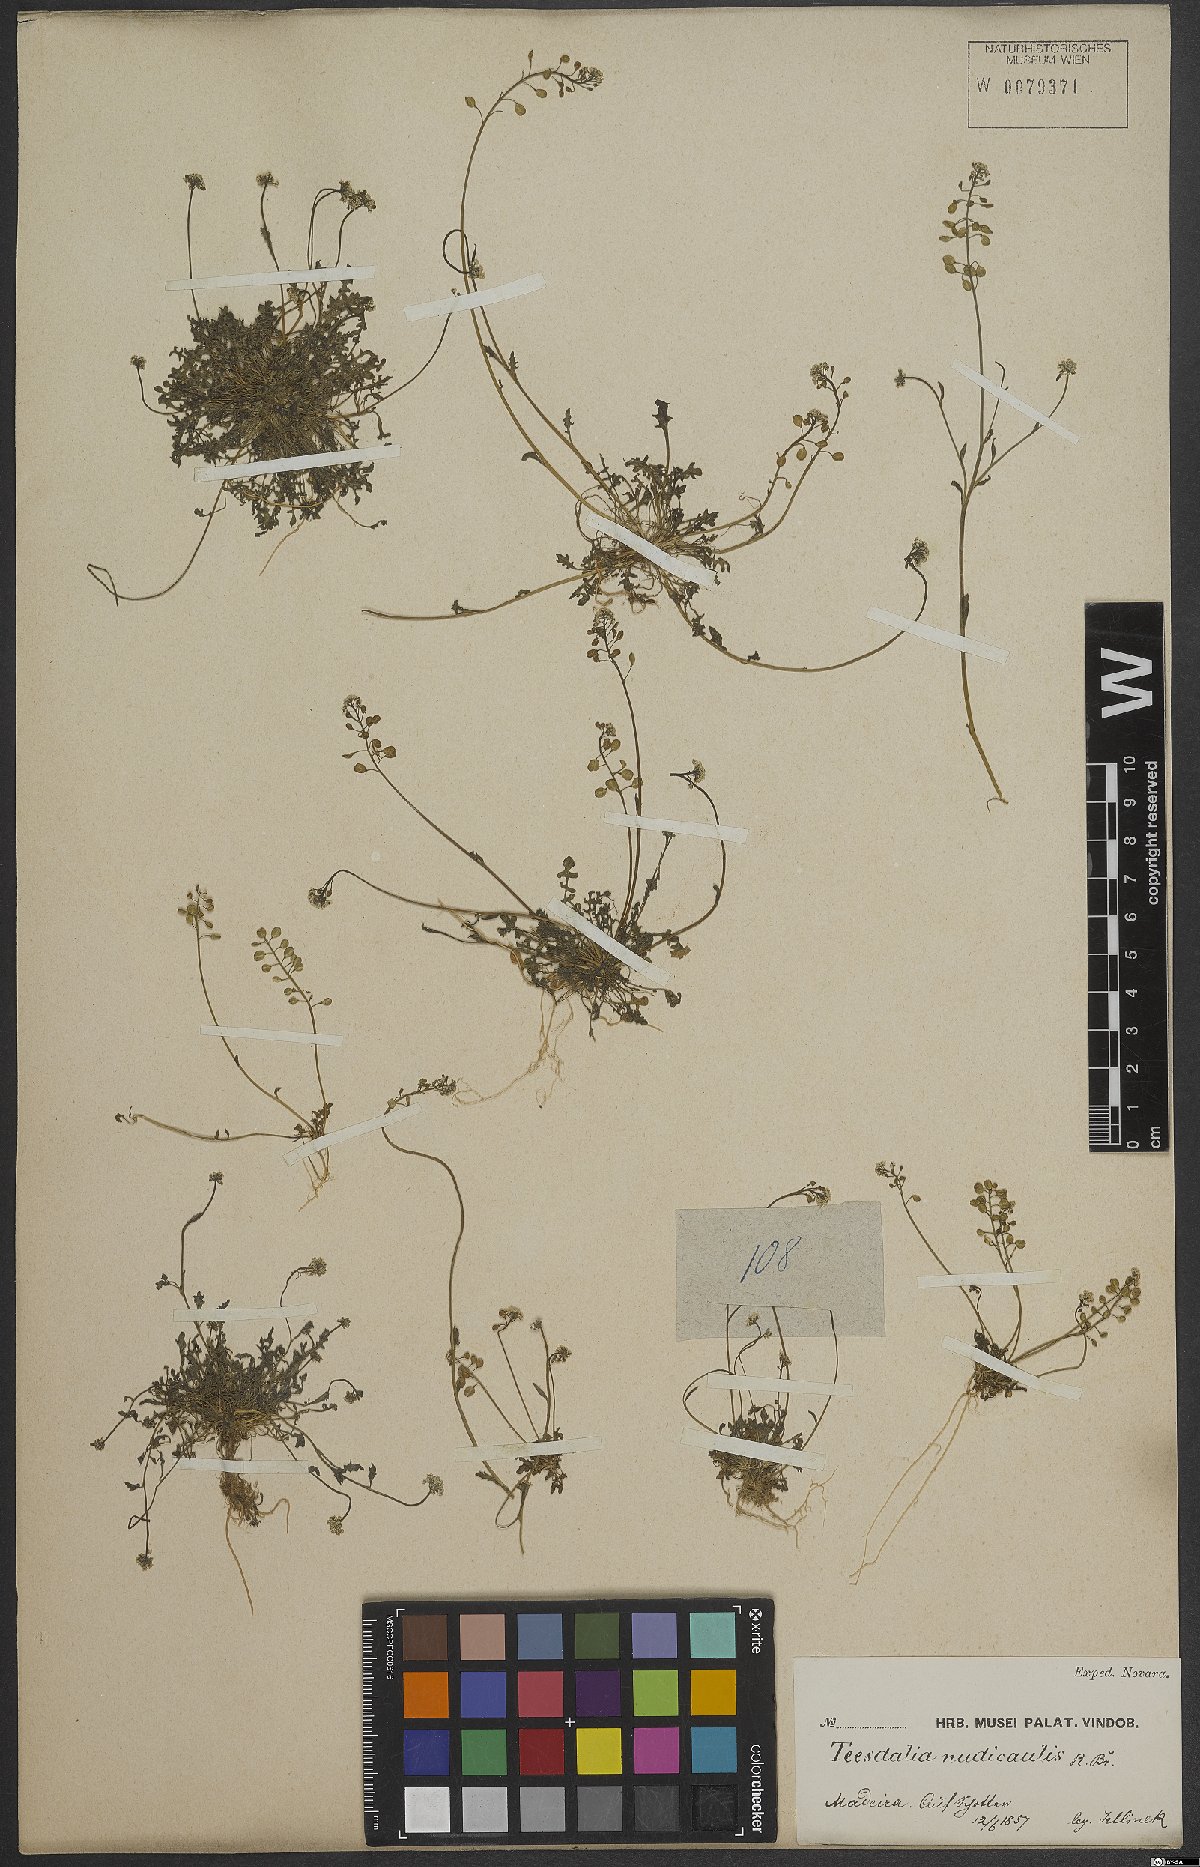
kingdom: Plantae
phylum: Tracheophyta
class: Magnoliopsida
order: Brassicales
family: Brassicaceae
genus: Teesdalia
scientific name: Teesdalia nudicaulis
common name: Shepherd's cress
